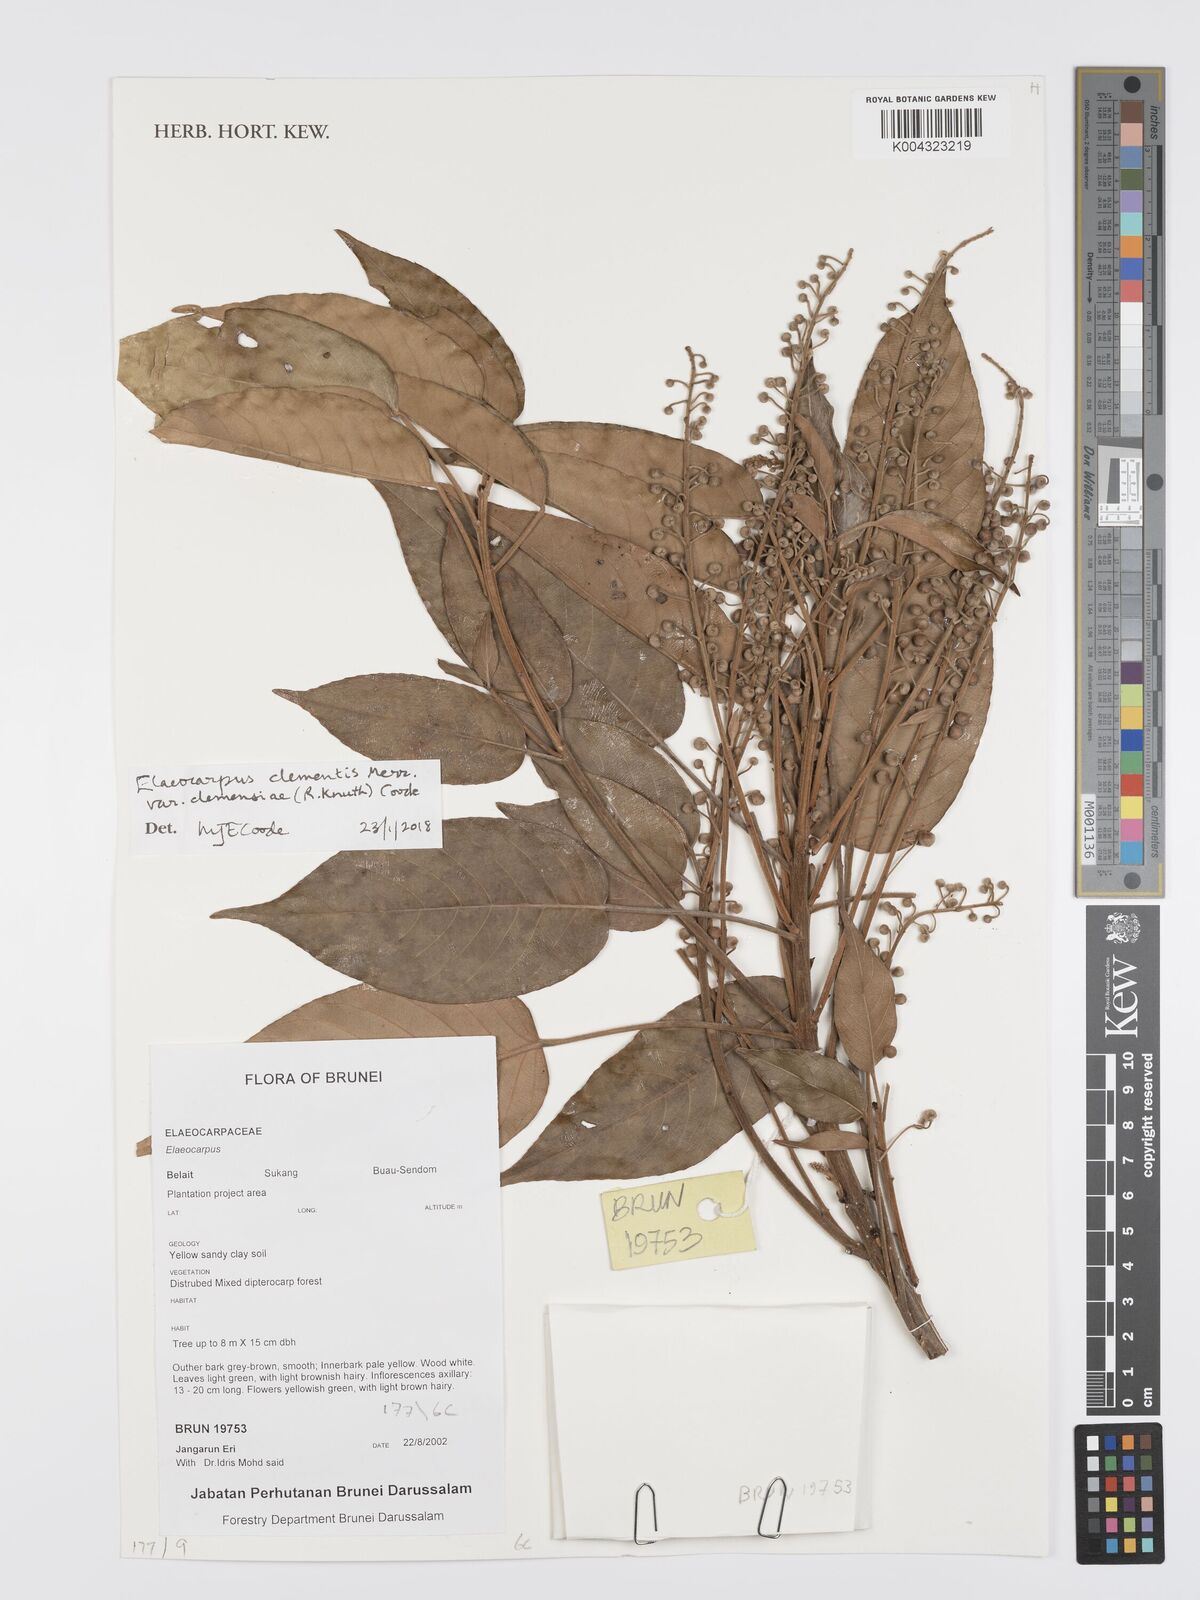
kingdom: Plantae
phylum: Tracheophyta
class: Magnoliopsida
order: Oxalidales
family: Elaeocarpaceae
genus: Elaeocarpus
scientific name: Elaeocarpus clementis
